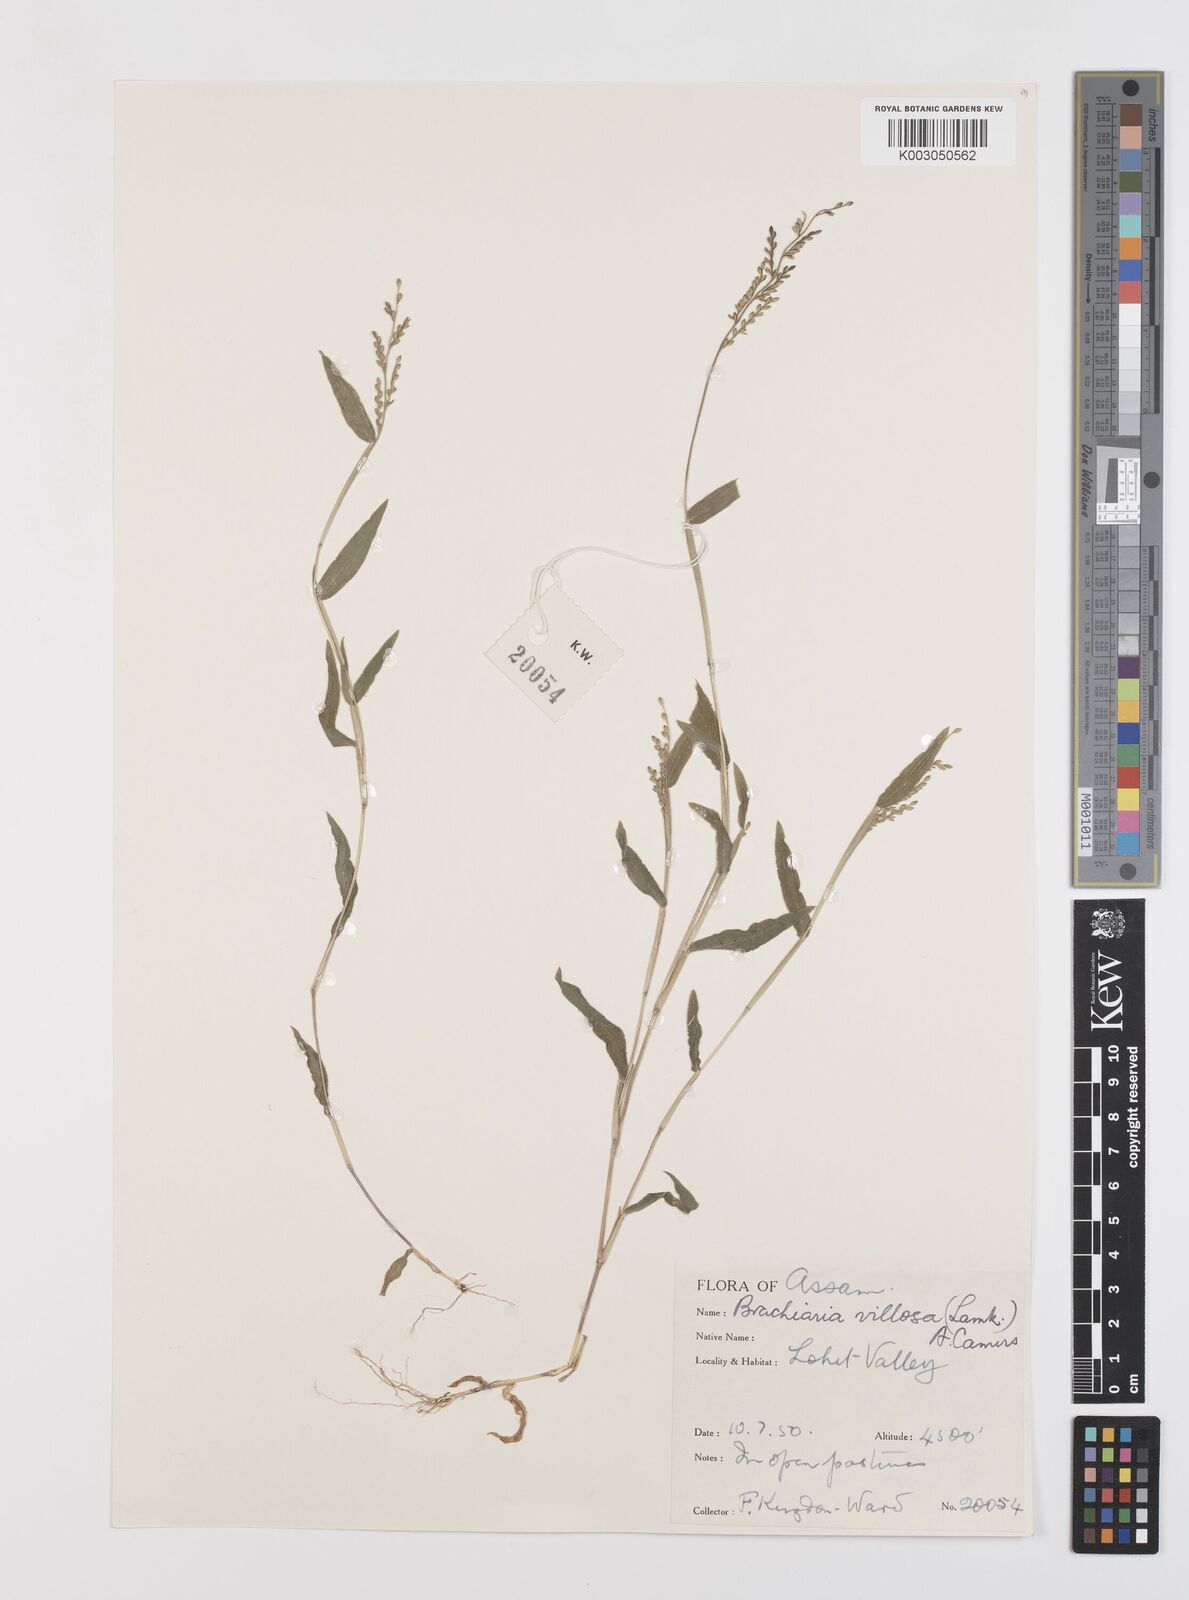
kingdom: Plantae
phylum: Tracheophyta
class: Liliopsida
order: Poales
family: Poaceae
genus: Urochloa
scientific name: Urochloa villosa
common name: Hairy signalgrass
